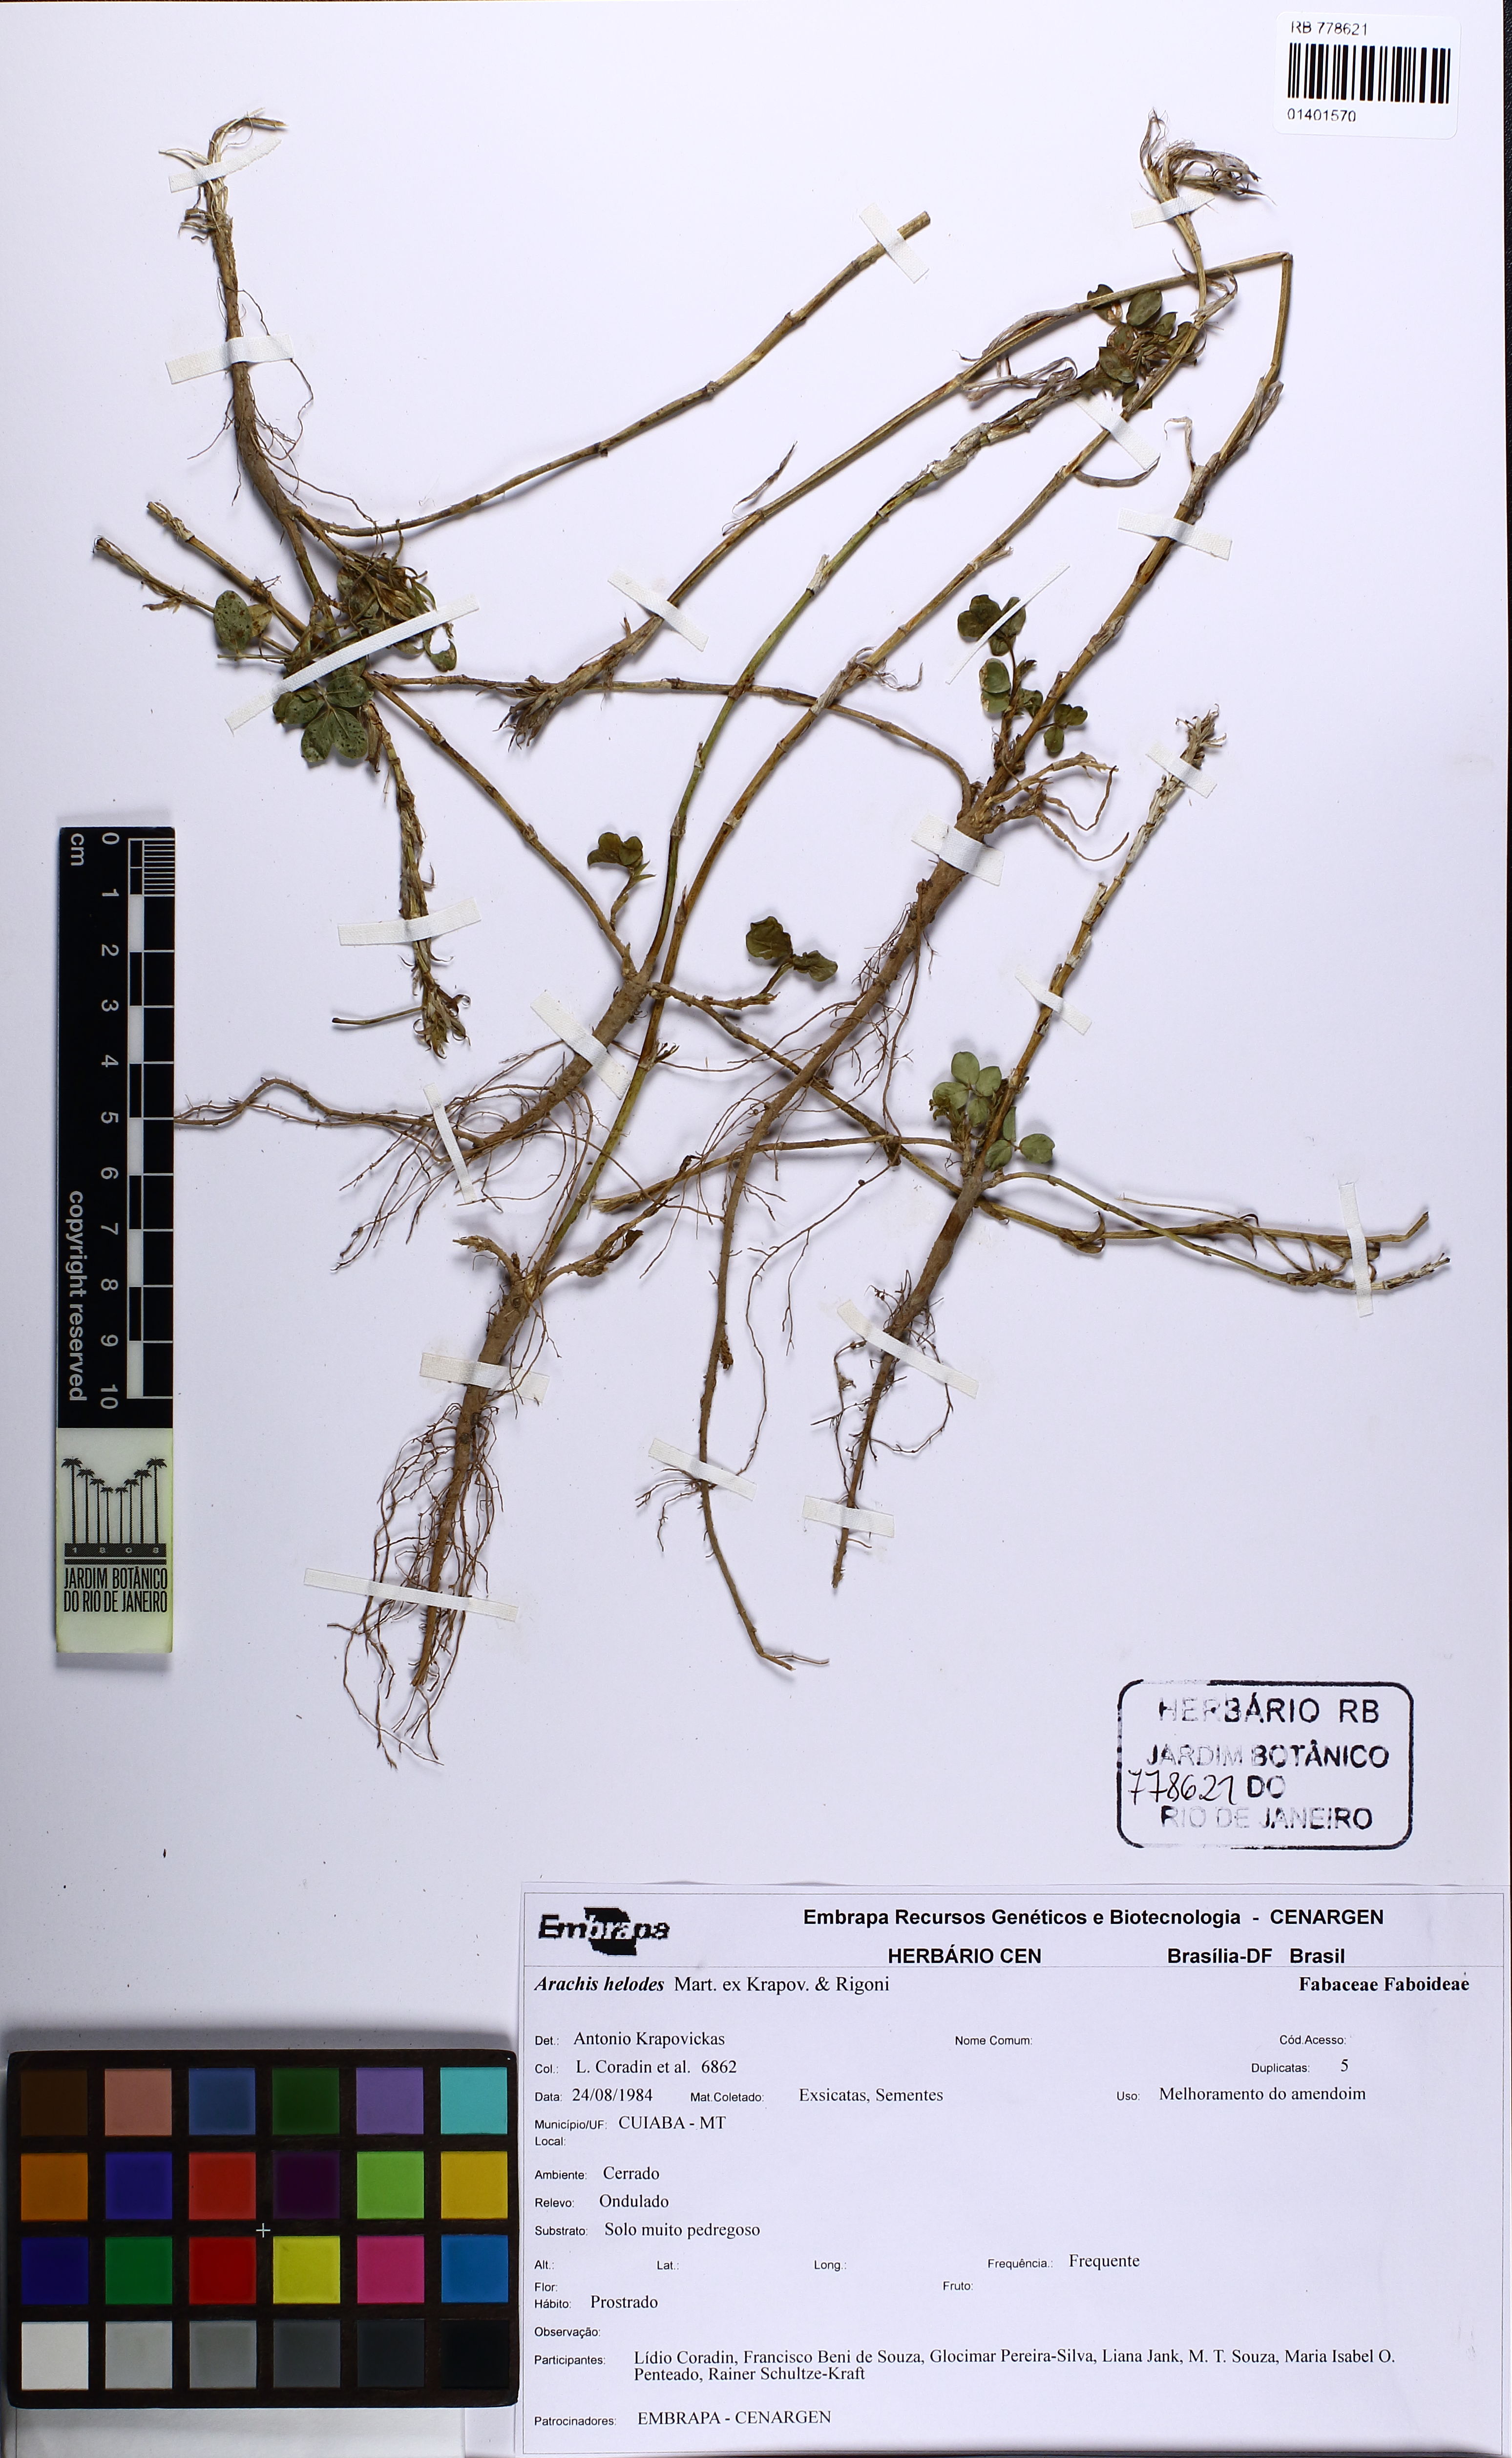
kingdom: Plantae
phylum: Tracheophyta
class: Magnoliopsida
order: Fabales
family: Fabaceae
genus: Arachis
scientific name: Arachis helodes
